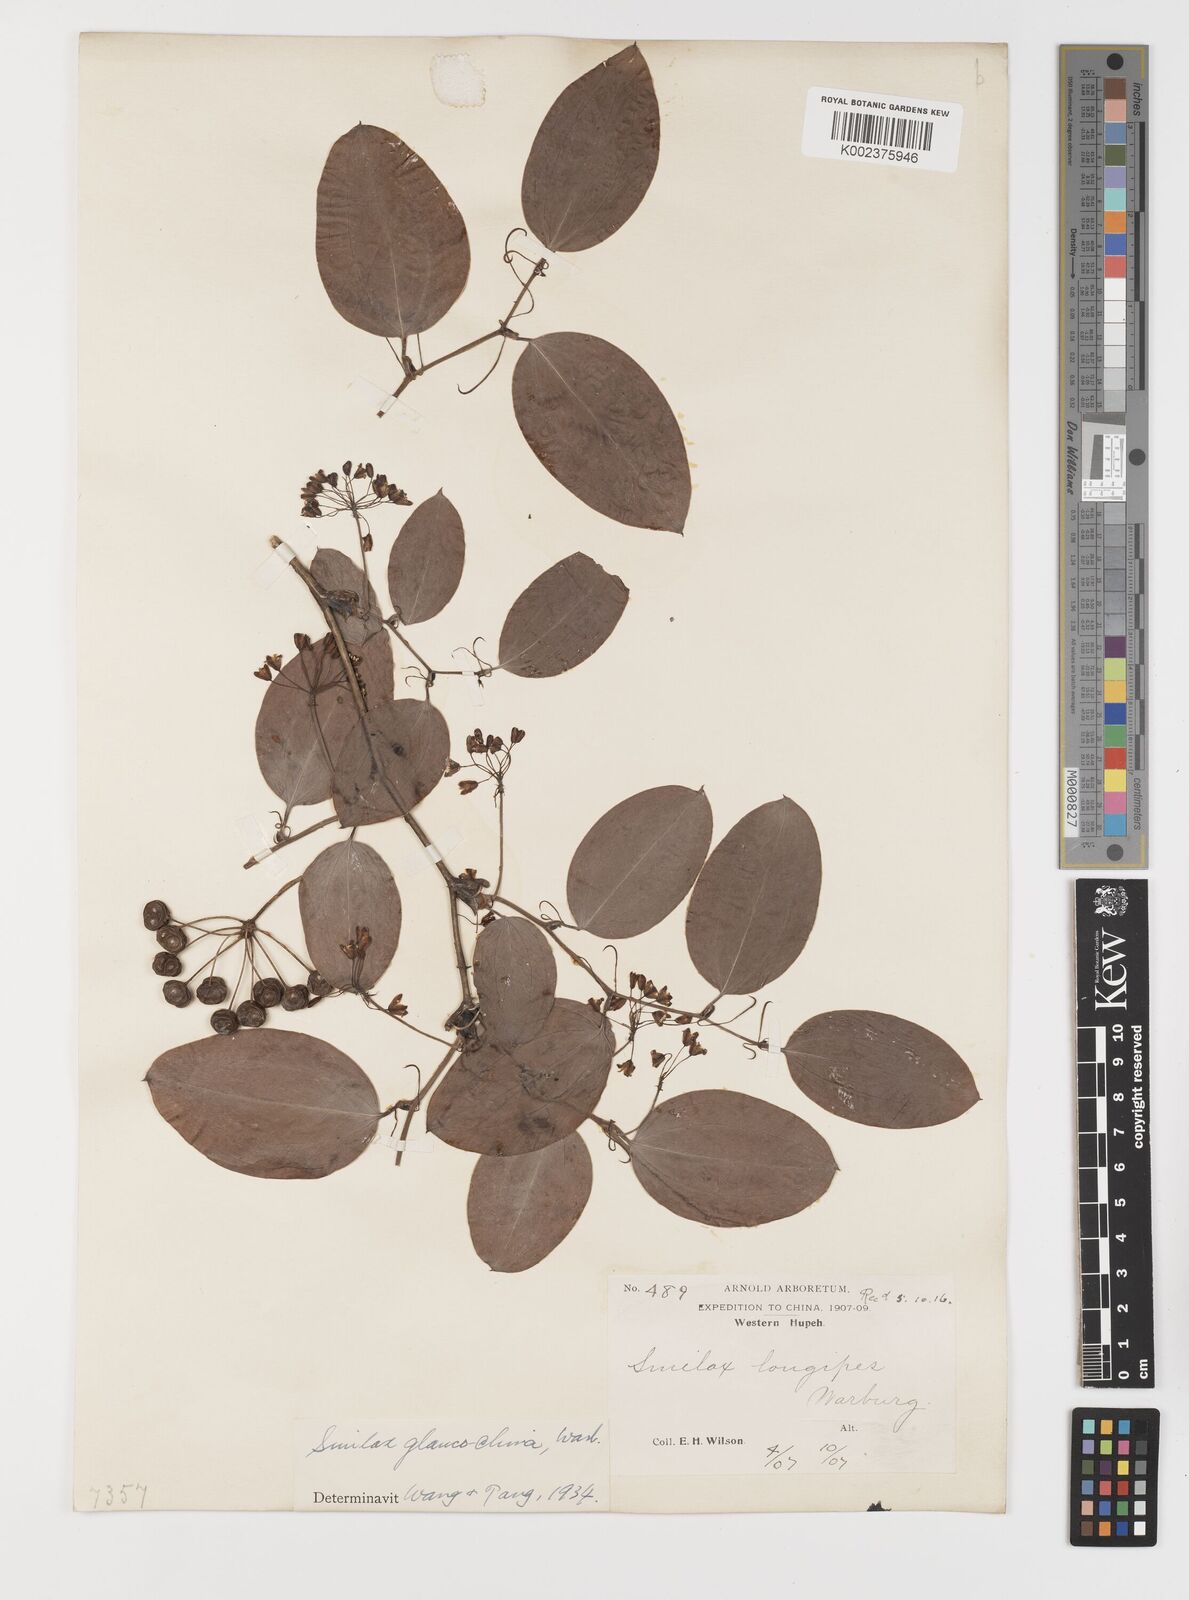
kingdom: Plantae
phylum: Tracheophyta
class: Liliopsida
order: Liliales
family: Smilacaceae
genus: Smilax
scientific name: Smilax glaucochina
